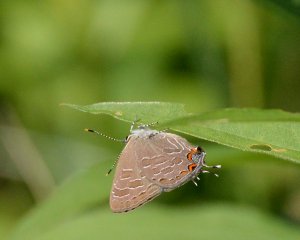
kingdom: Animalia
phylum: Arthropoda
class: Insecta
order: Lepidoptera
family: Lycaenidae
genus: Satyrium
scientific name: Satyrium liparops
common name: Striped Hairstreak
